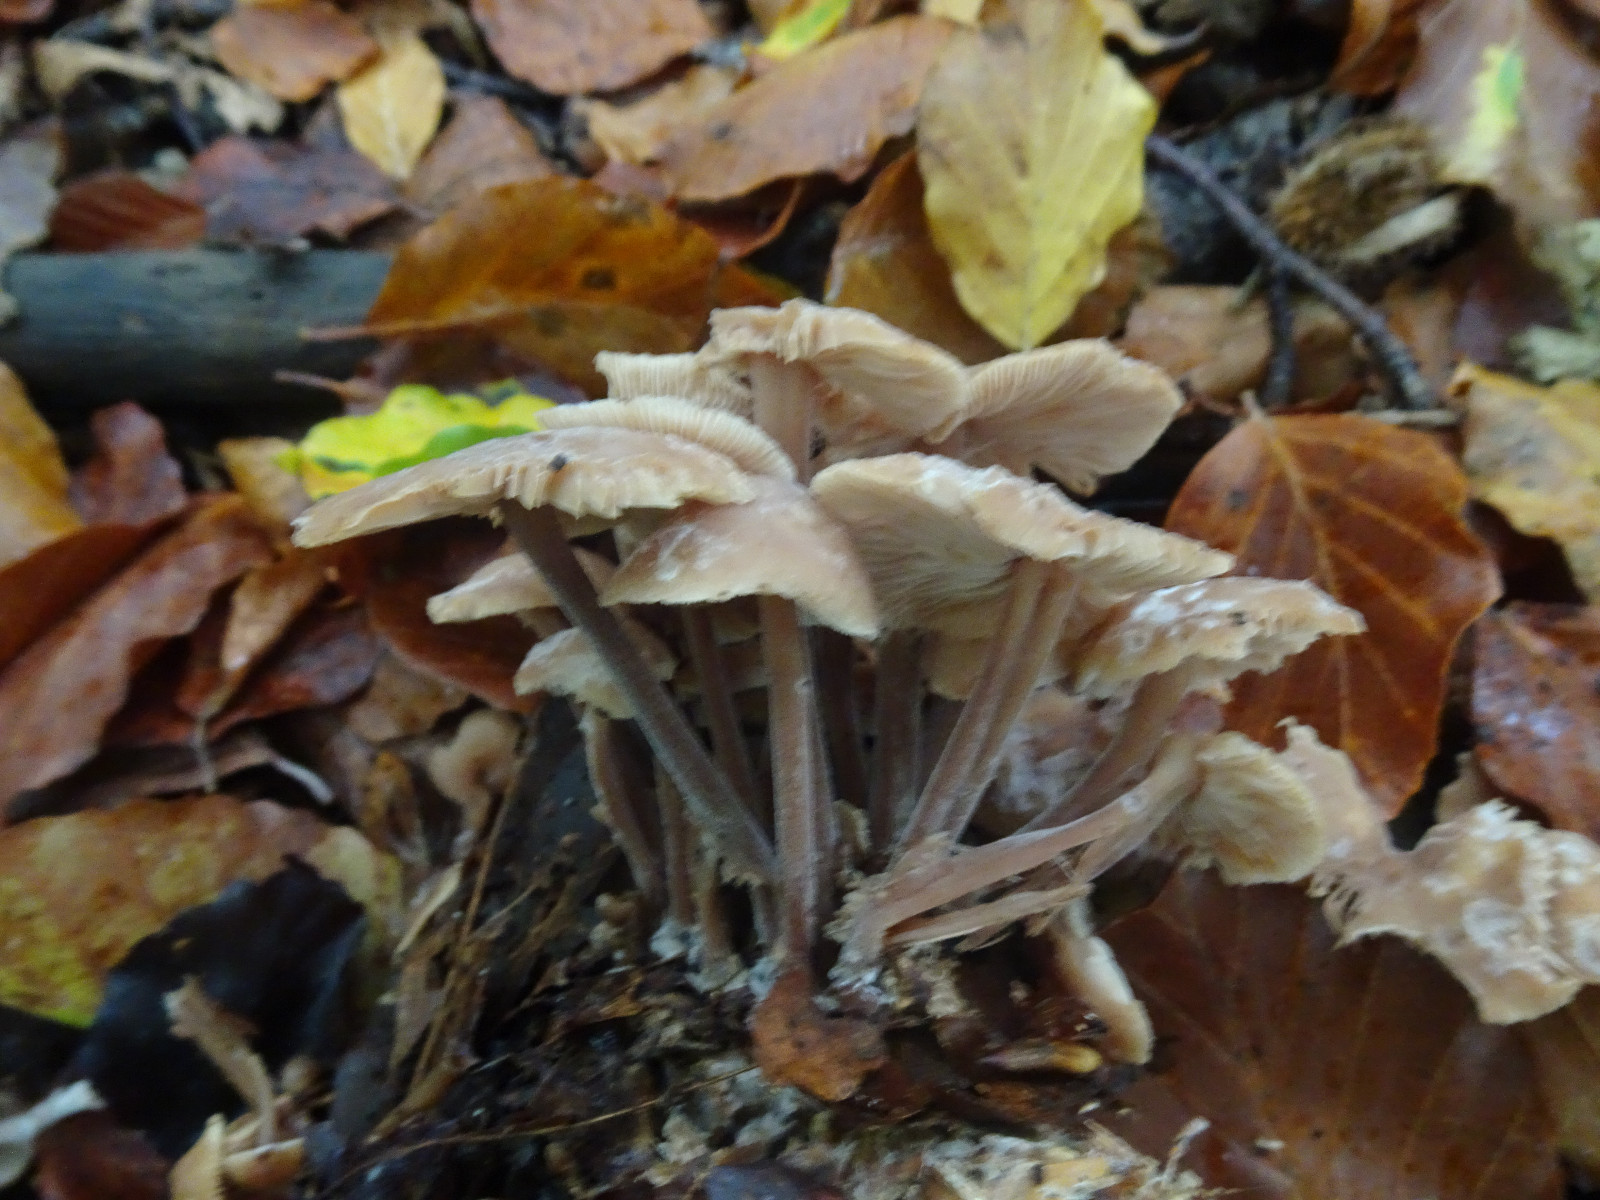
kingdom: Fungi
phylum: Basidiomycota
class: Agaricomycetes
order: Agaricales
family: Omphalotaceae
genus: Collybiopsis
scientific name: Collybiopsis confluens
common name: knippe-fladhat
